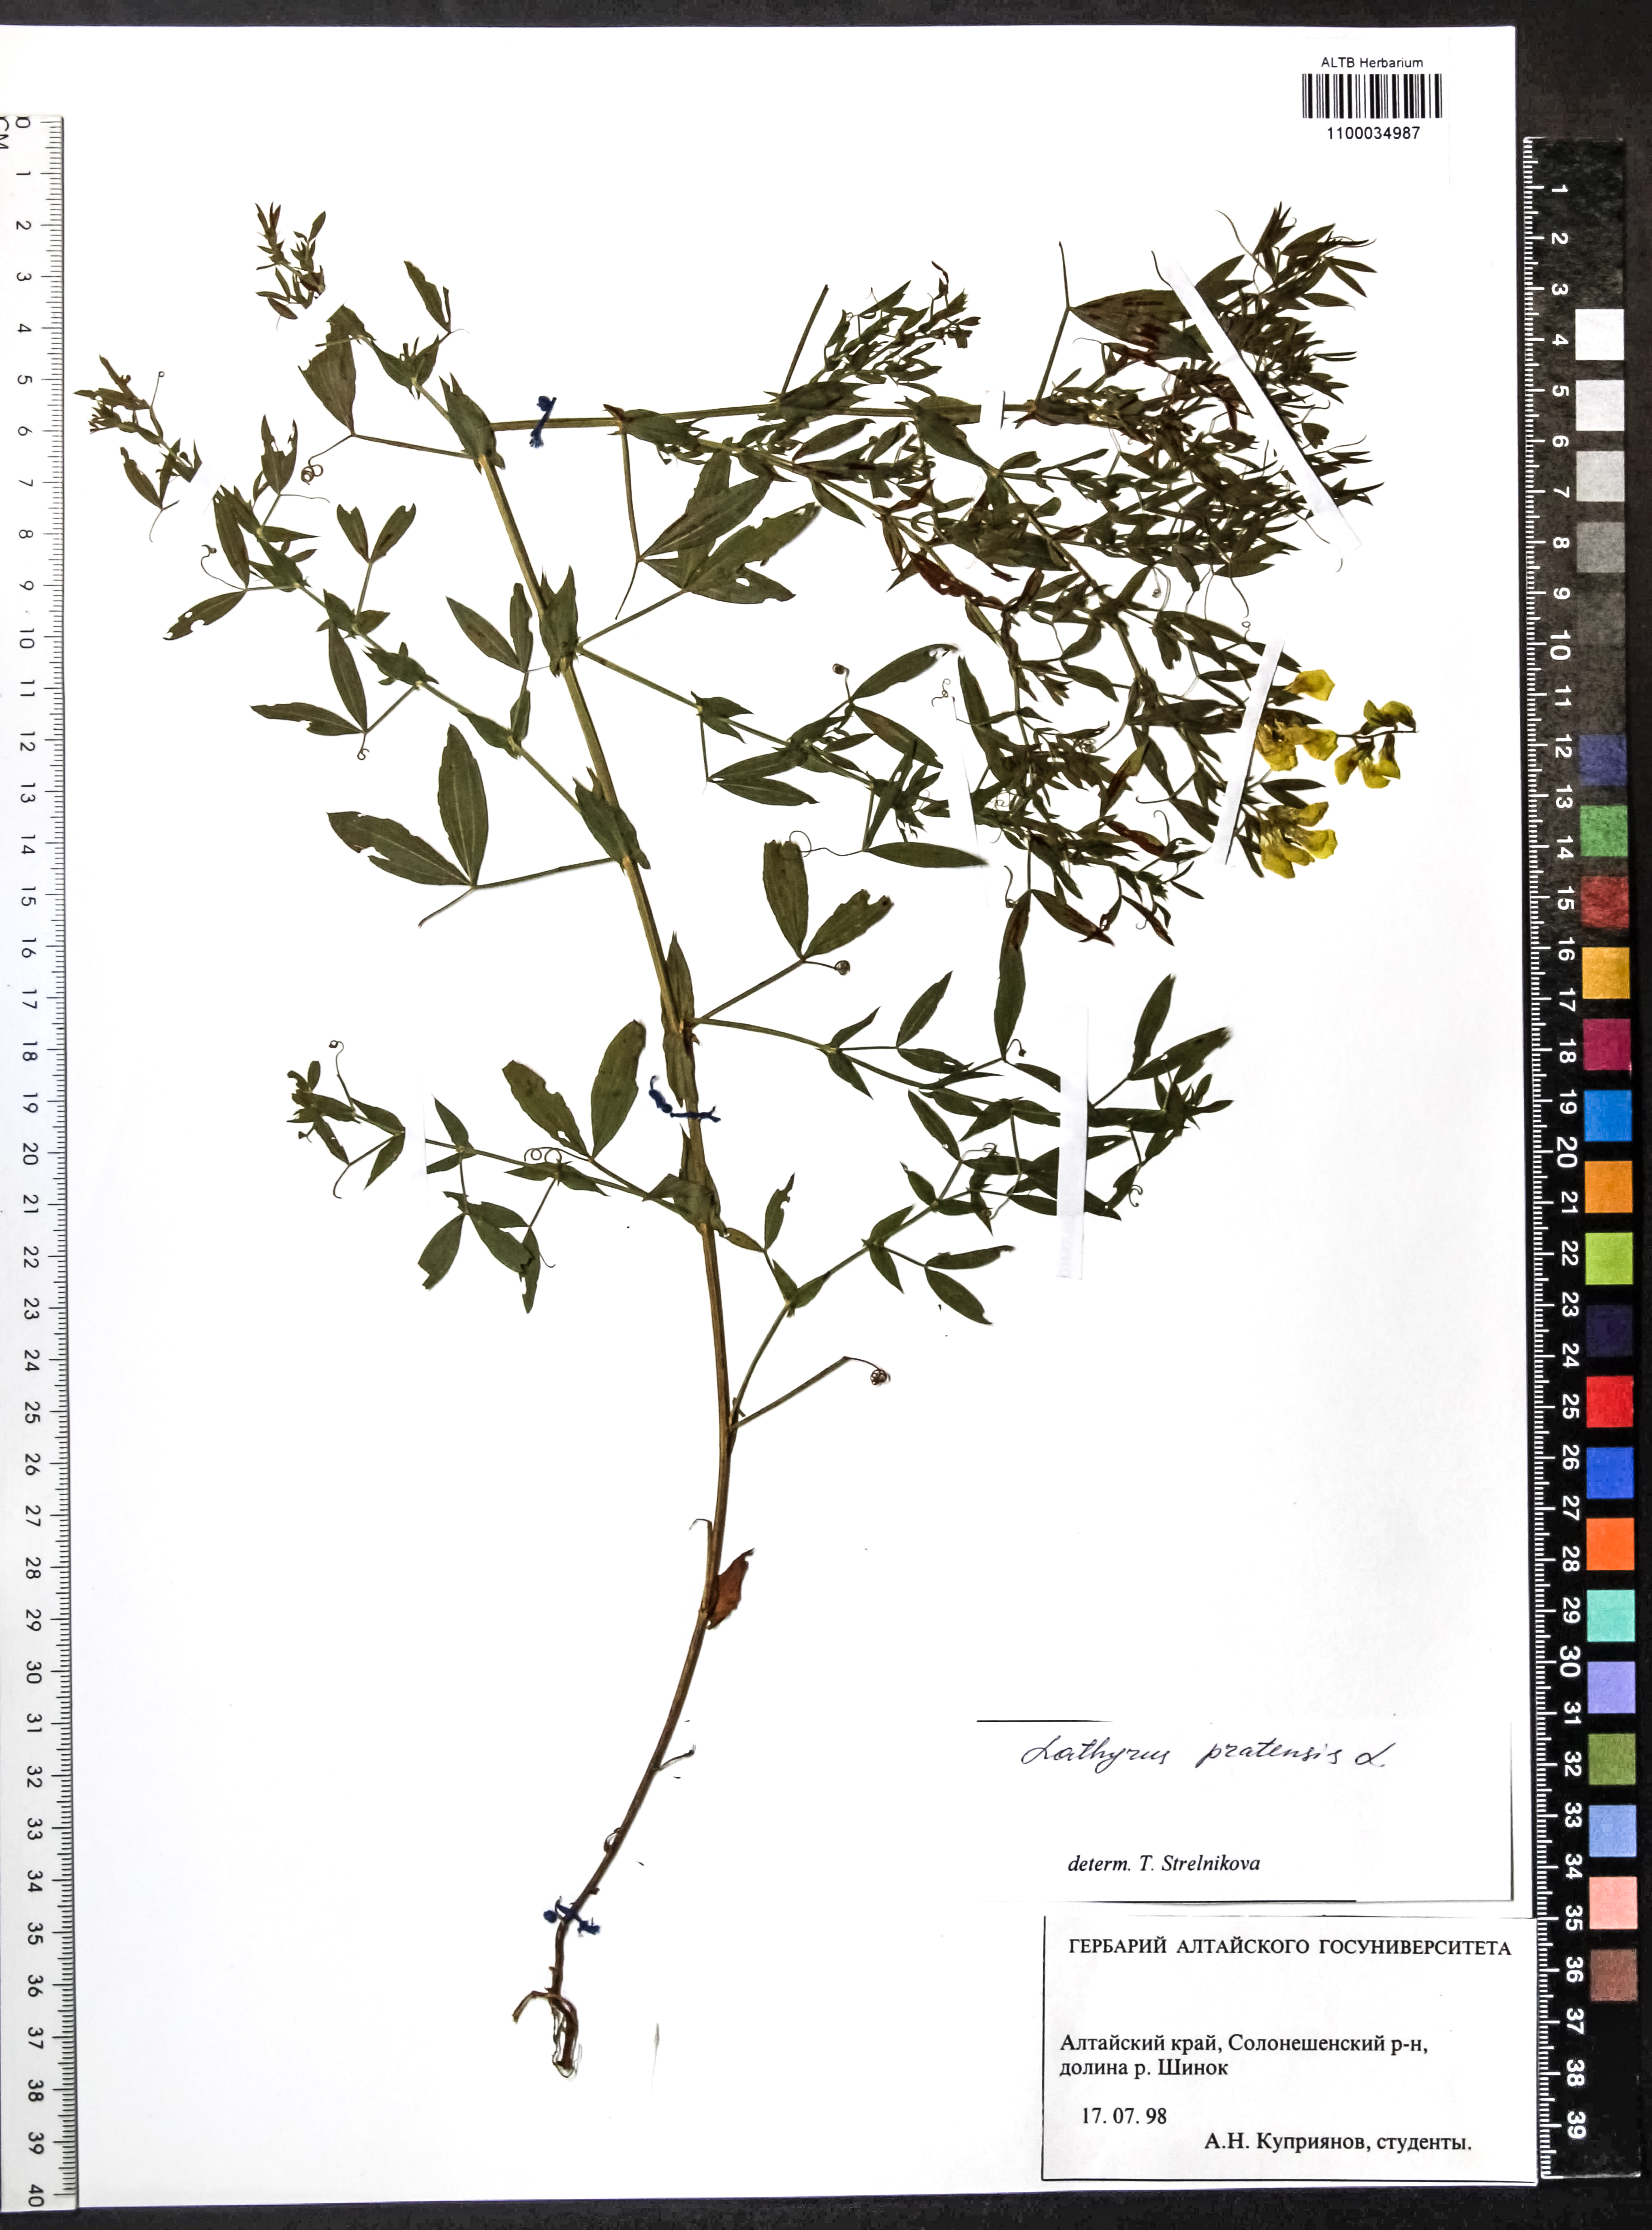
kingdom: Plantae
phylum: Tracheophyta
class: Magnoliopsida
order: Fabales
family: Fabaceae
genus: Lathyrus
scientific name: Lathyrus pratensis
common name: Meadow vetchling
